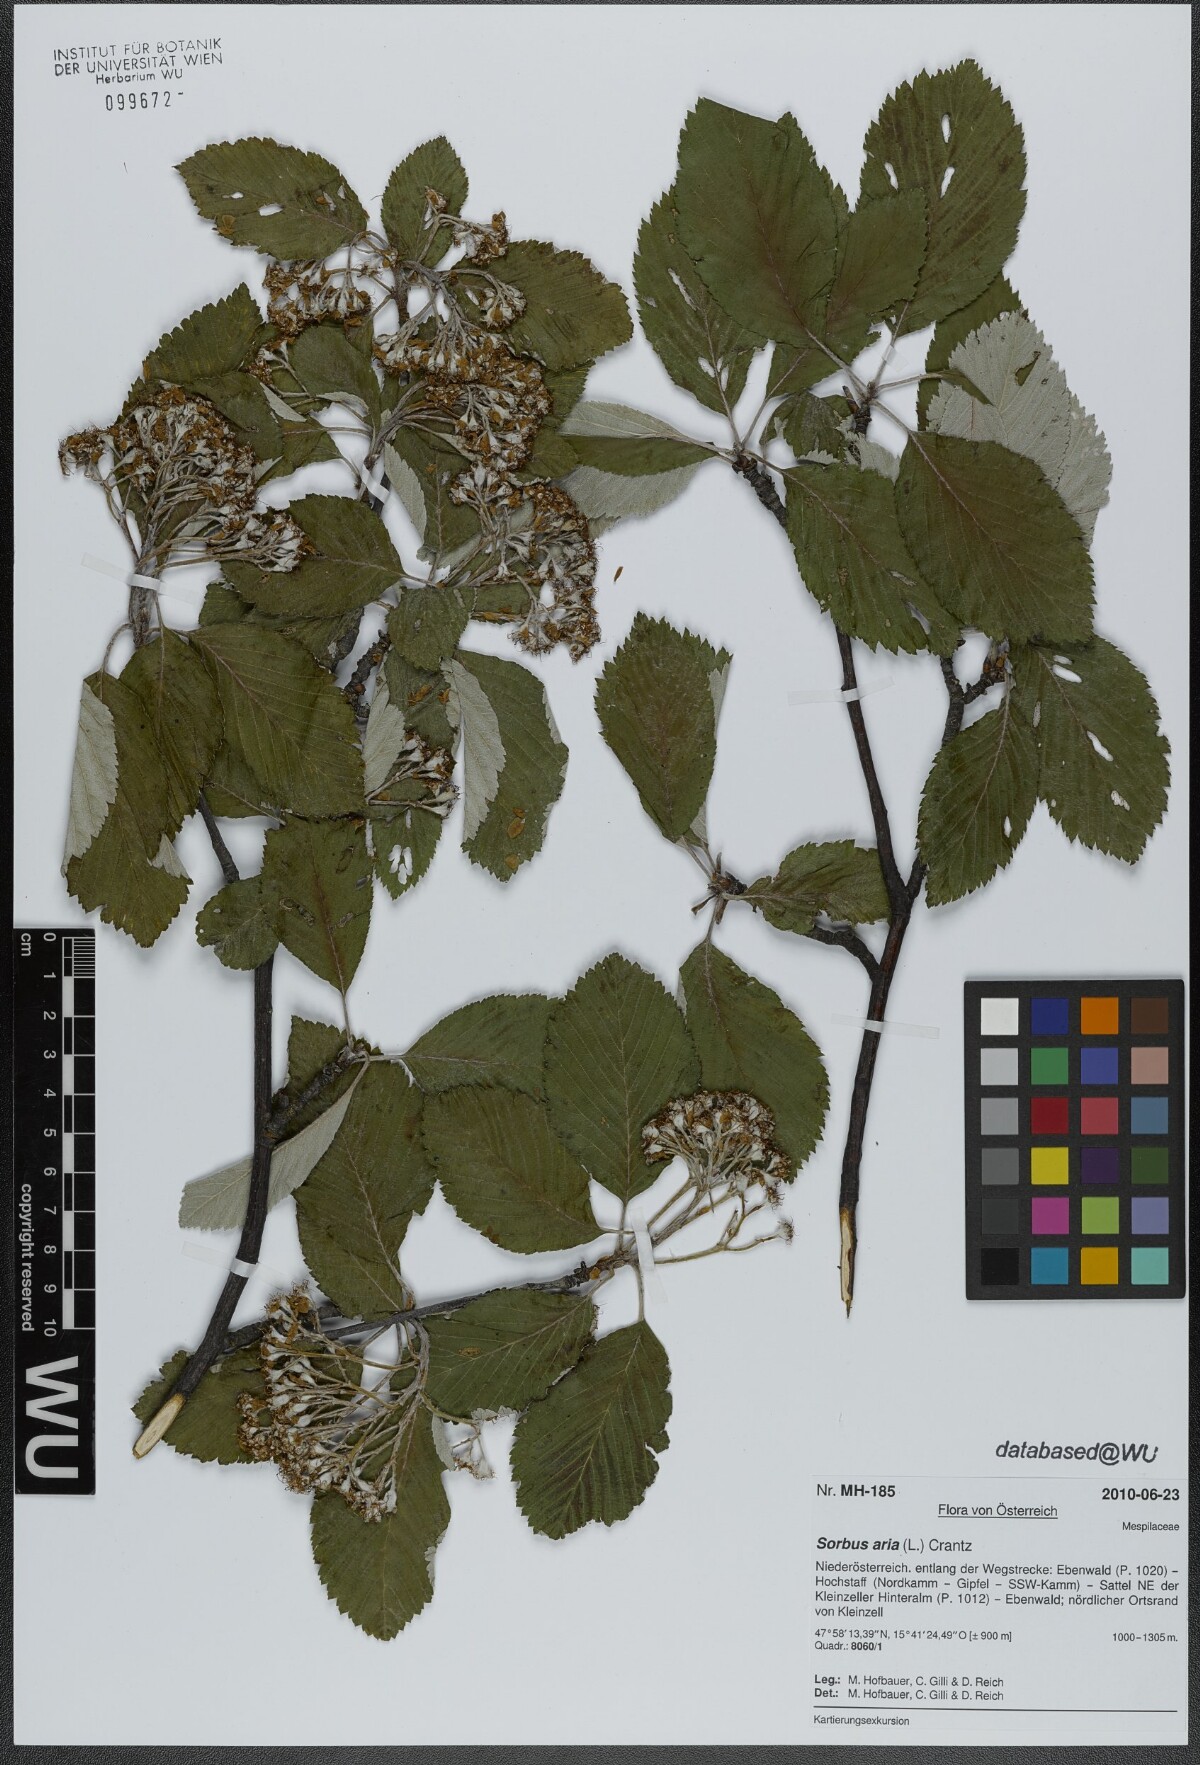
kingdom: Plantae
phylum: Tracheophyta
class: Magnoliopsida
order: Rosales
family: Rosaceae
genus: Aria
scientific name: Aria edulis
